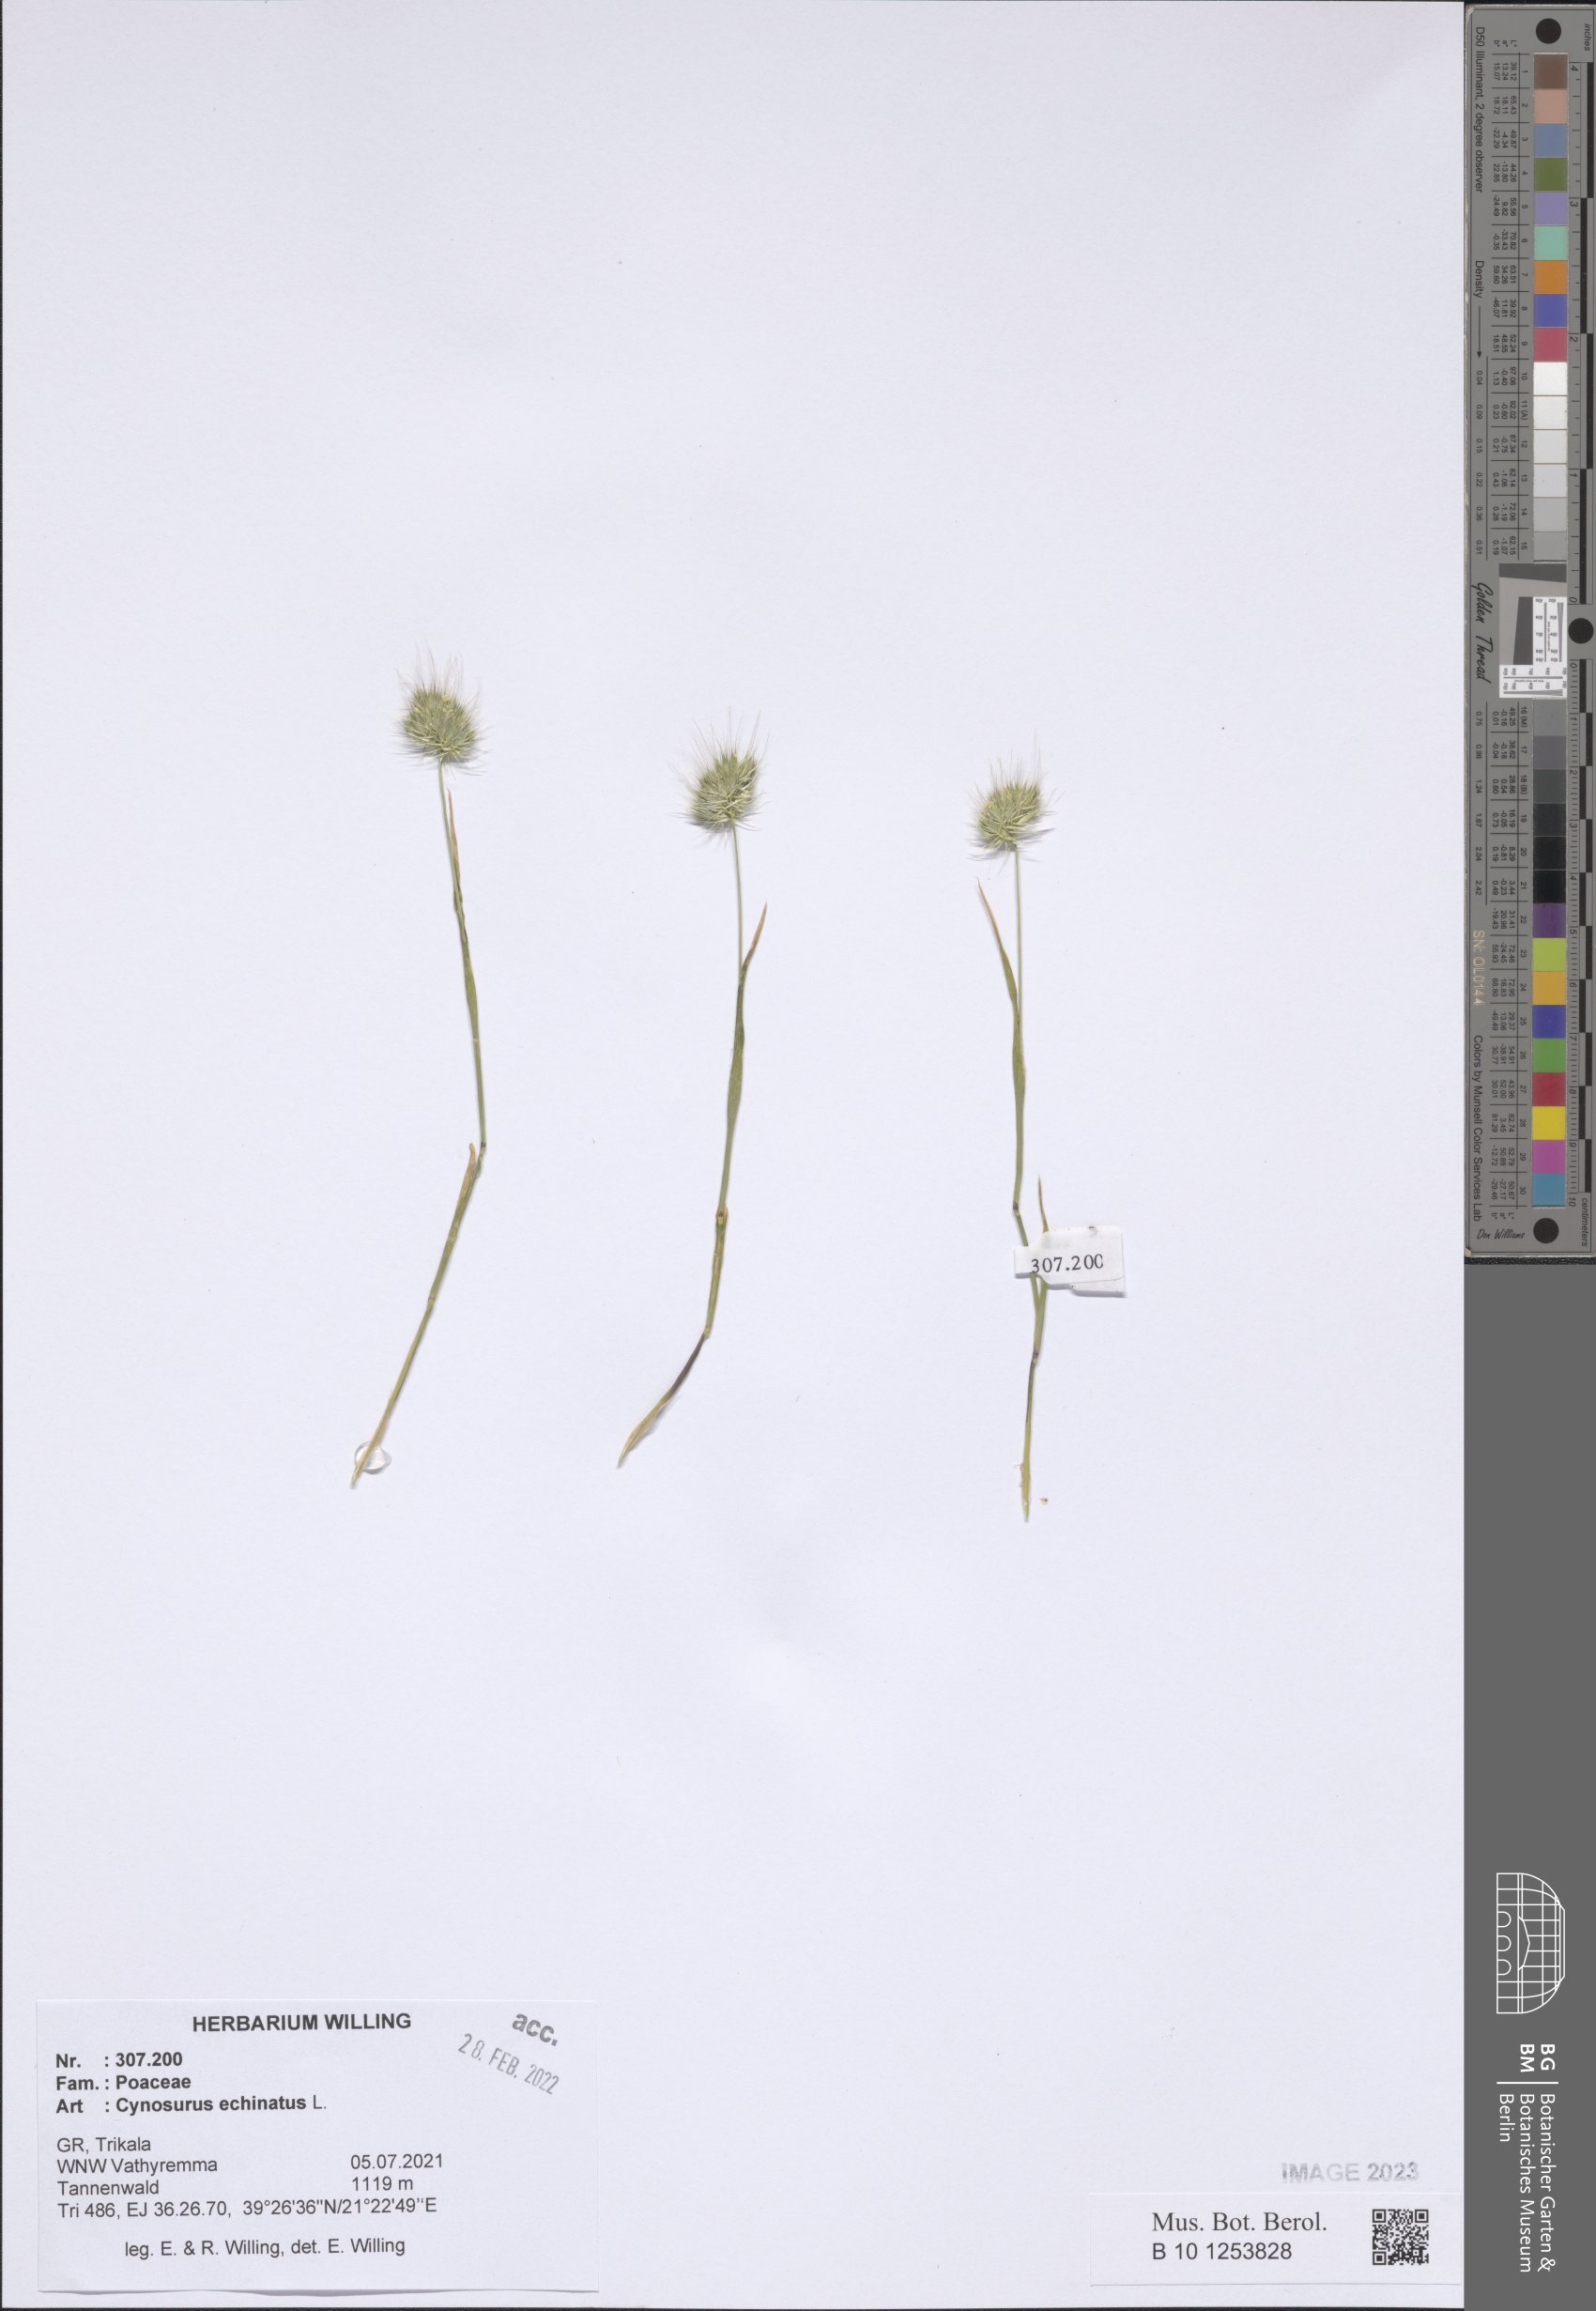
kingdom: Plantae
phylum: Tracheophyta
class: Liliopsida
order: Poales
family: Poaceae
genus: Cynosurus
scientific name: Cynosurus echinatus
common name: Rough dog's-tail
